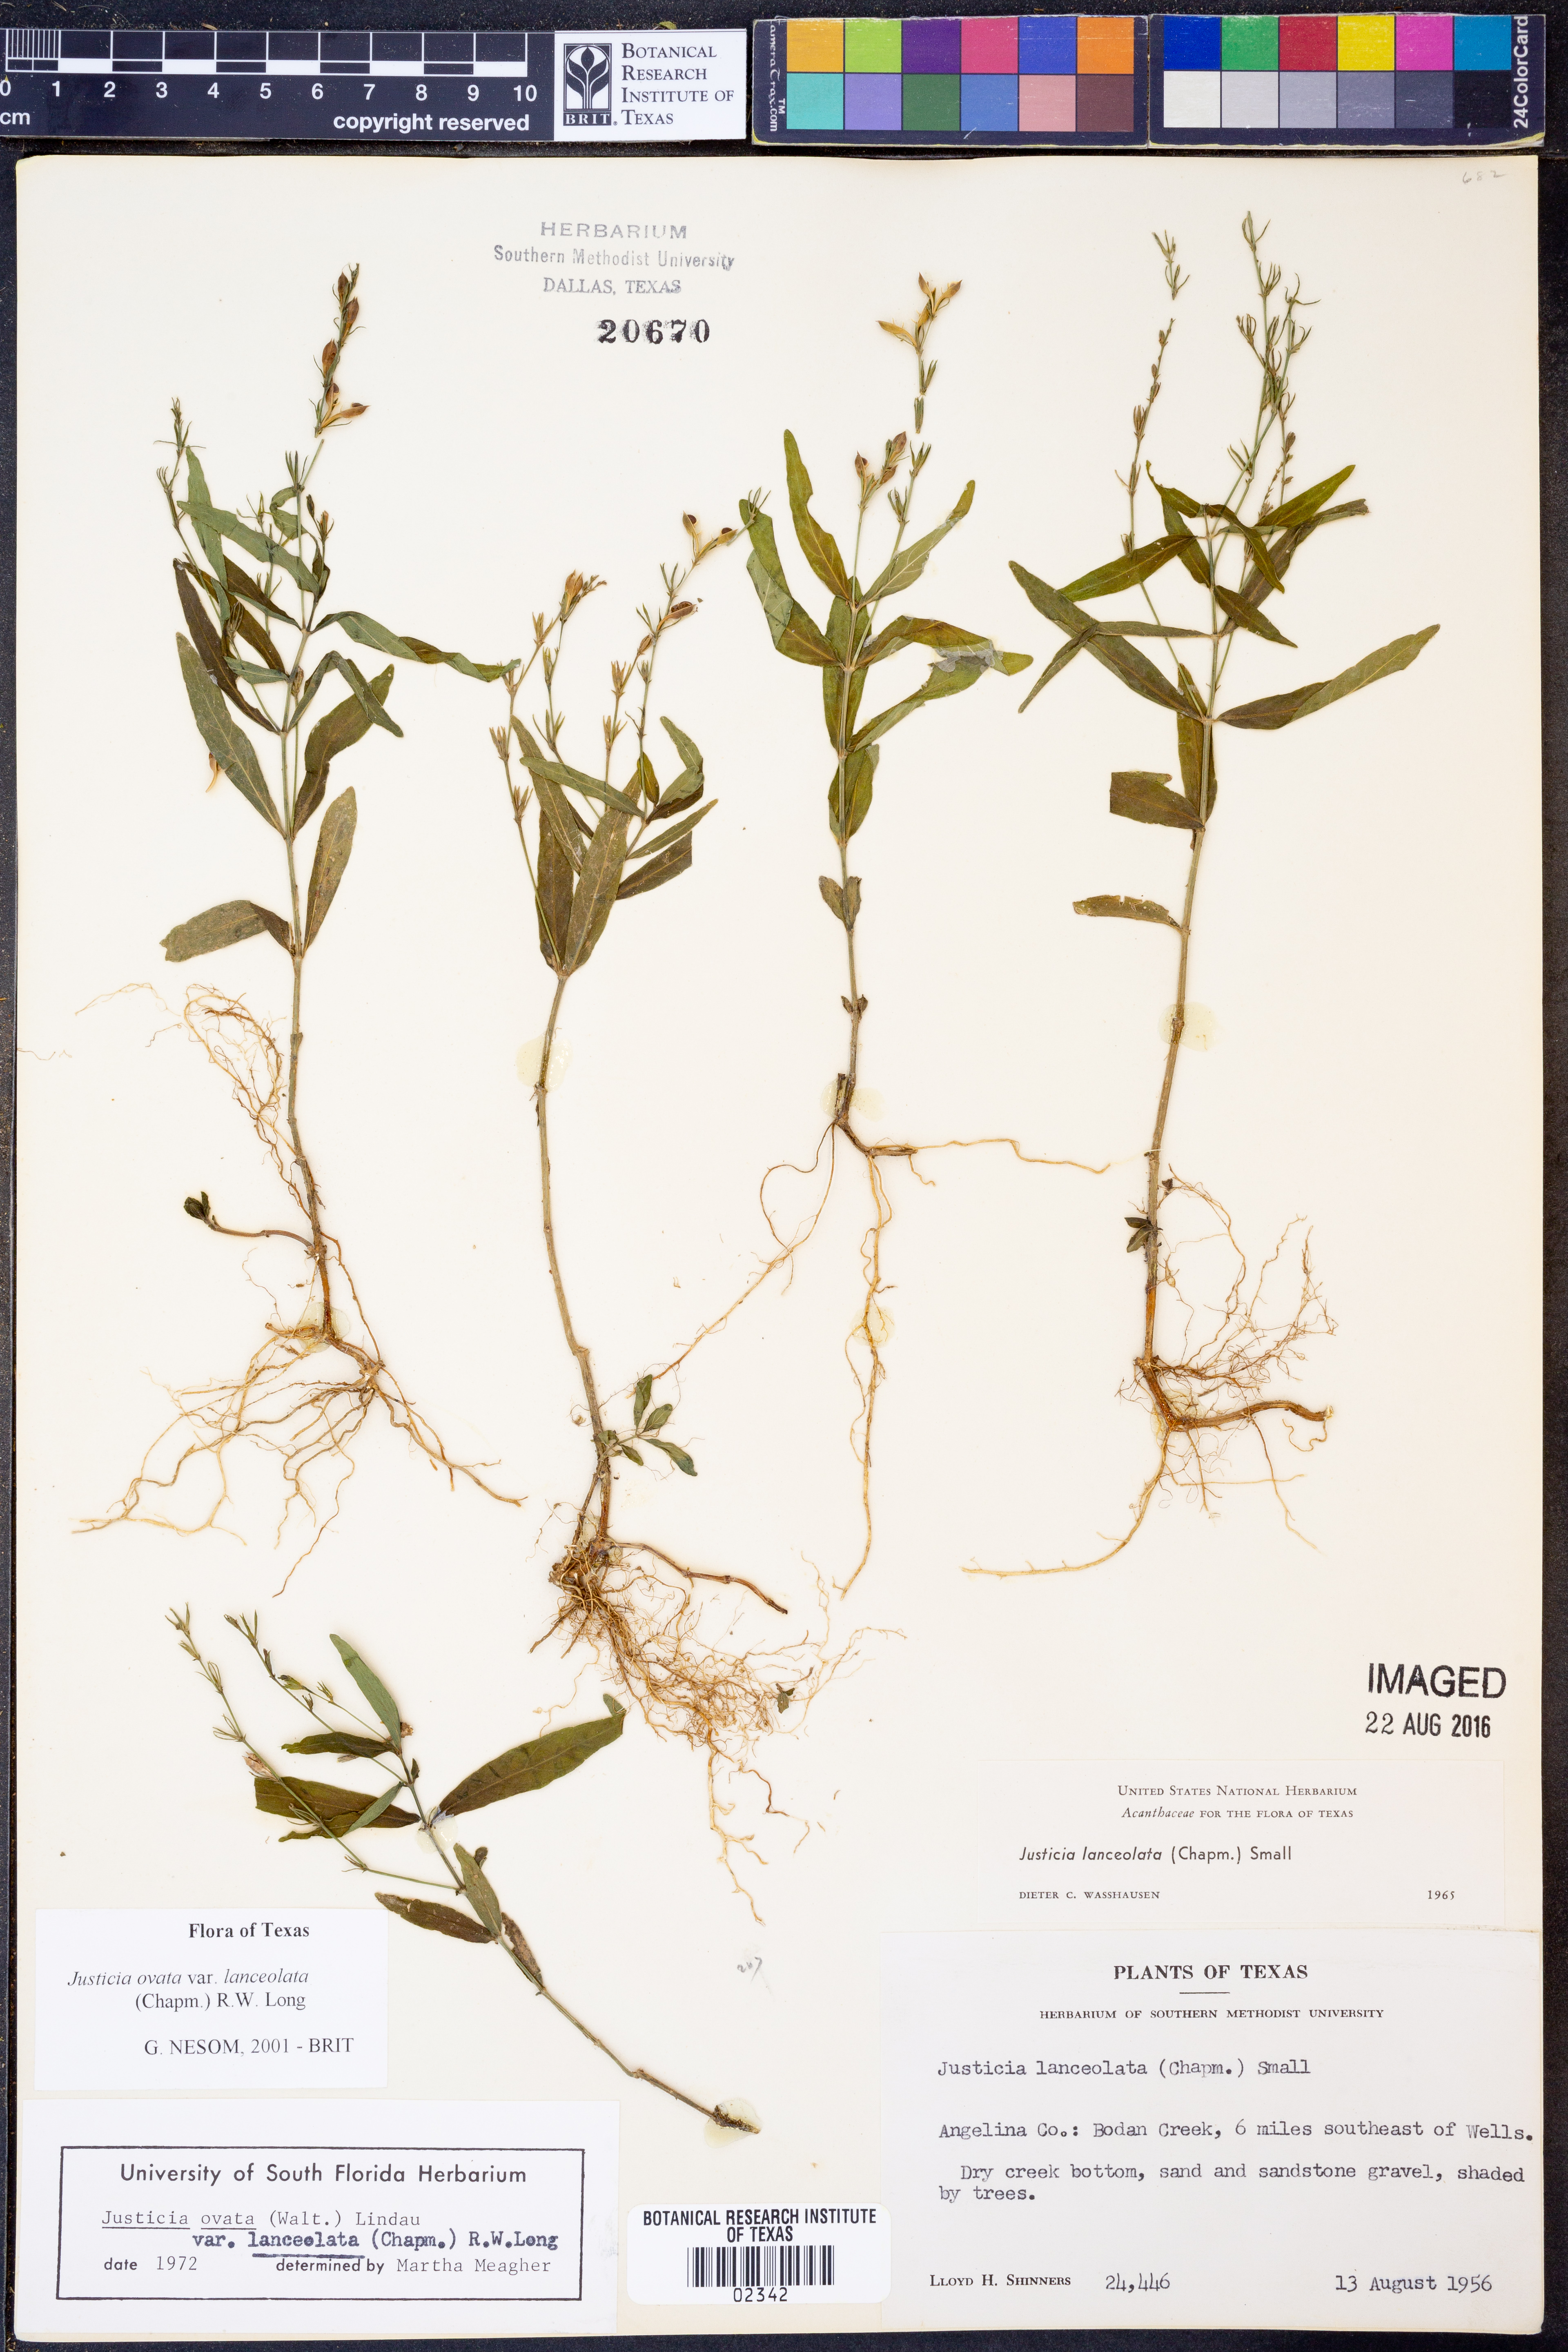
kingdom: Plantae
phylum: Tracheophyta
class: Magnoliopsida
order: Lamiales
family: Acanthaceae
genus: Justicia
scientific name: Justicia lanceolata
